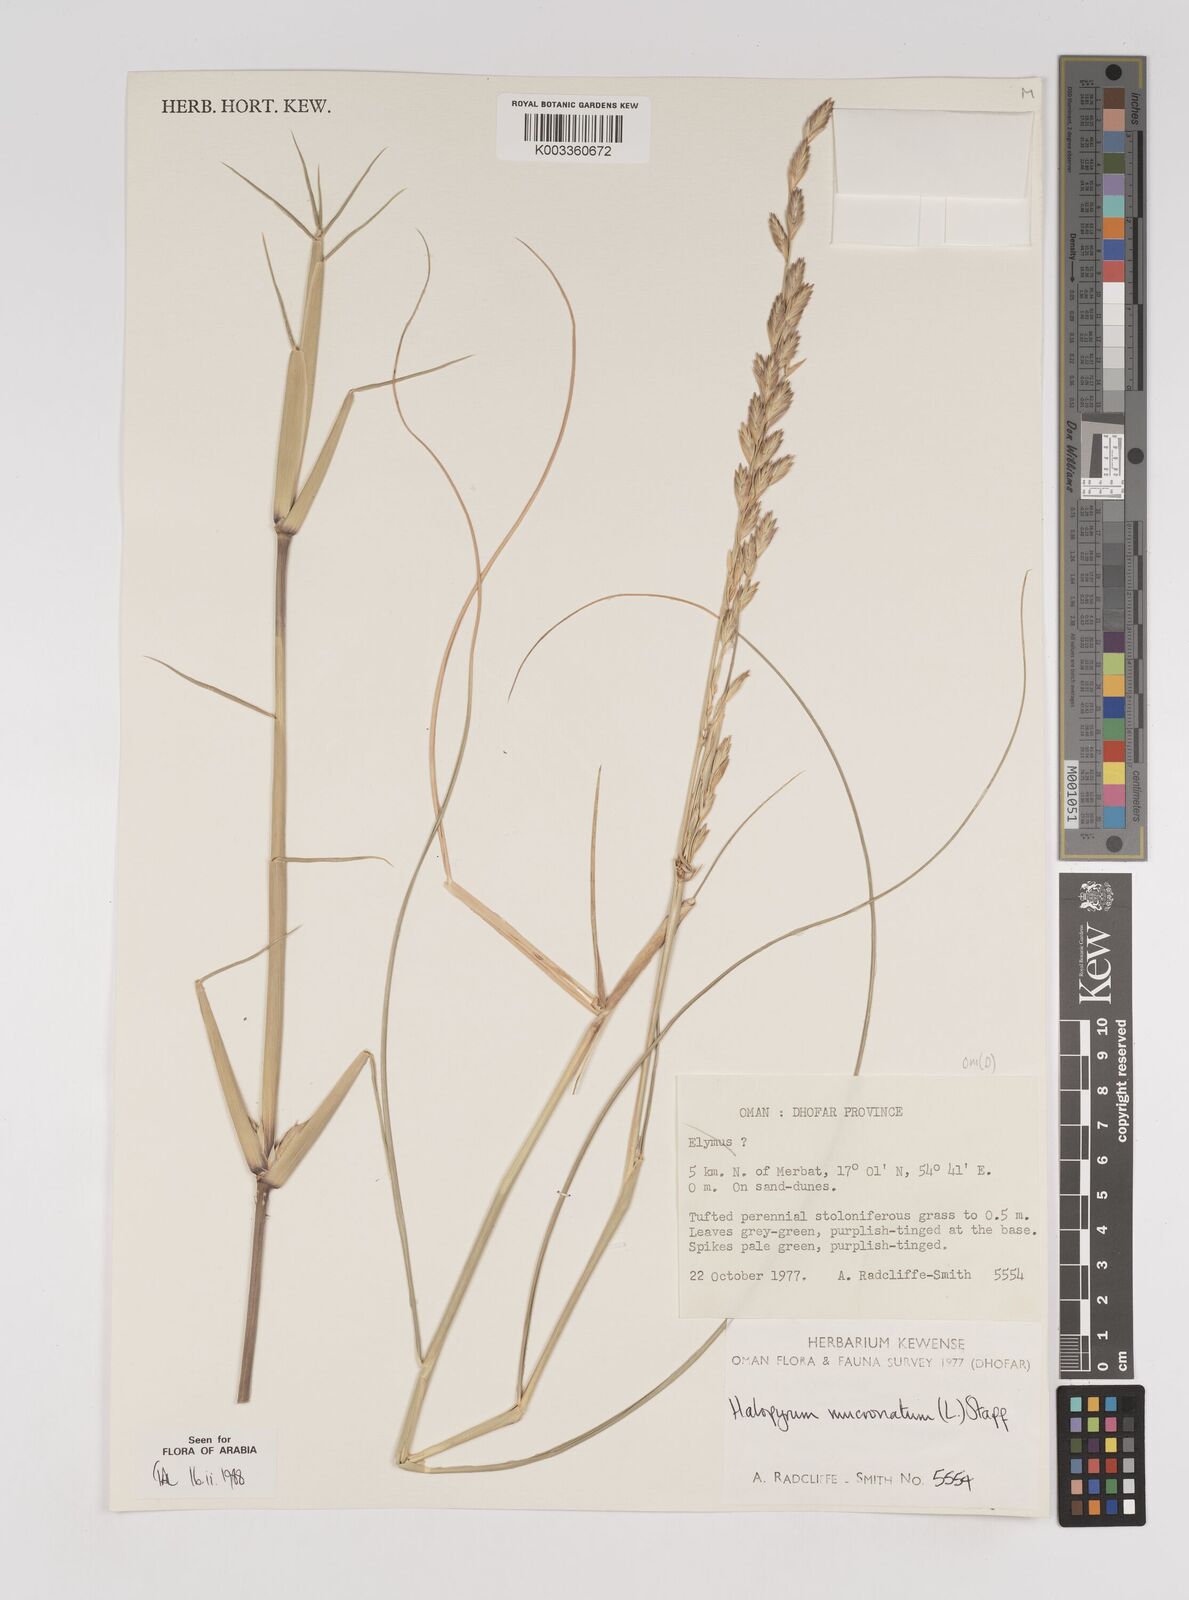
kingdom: Plantae
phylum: Tracheophyta
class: Liliopsida
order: Poales
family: Poaceae
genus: Halopyrum
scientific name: Halopyrum mucronatum
